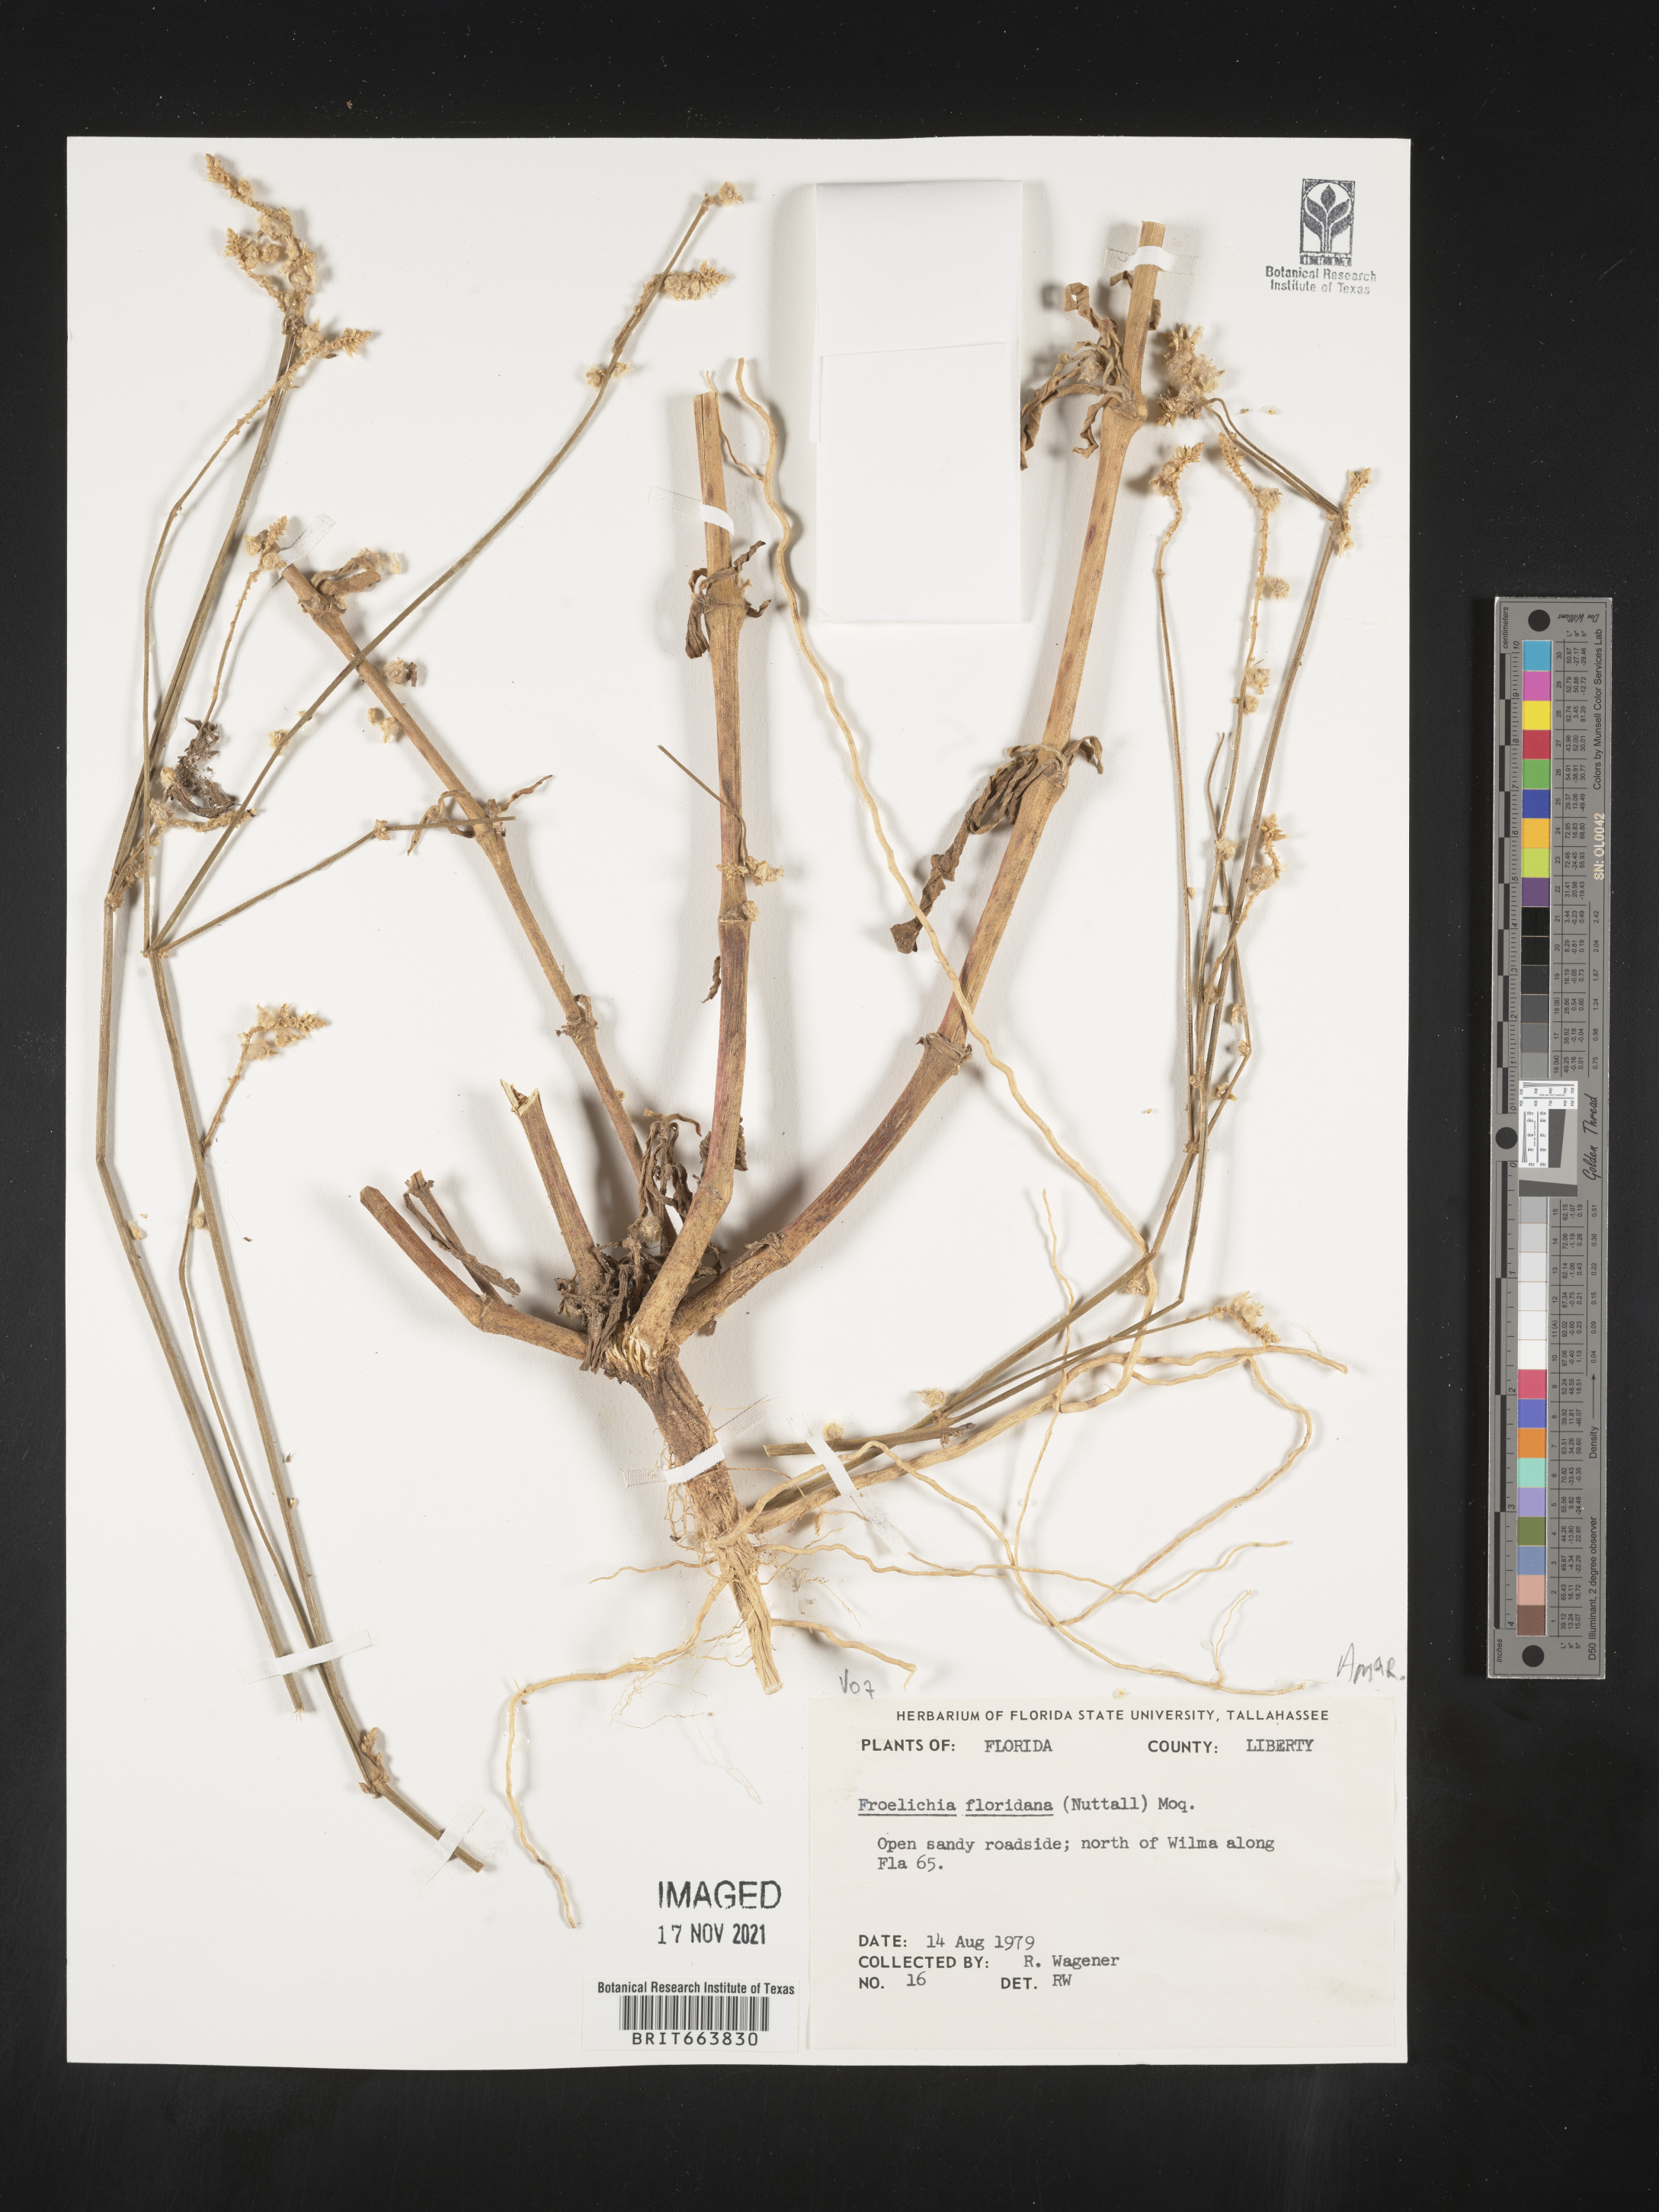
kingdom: Plantae
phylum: Tracheophyta
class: Magnoliopsida
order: Caryophyllales
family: Amaranthaceae
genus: Froelichia
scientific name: Froelichia floridana
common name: Florida snake-cotton
